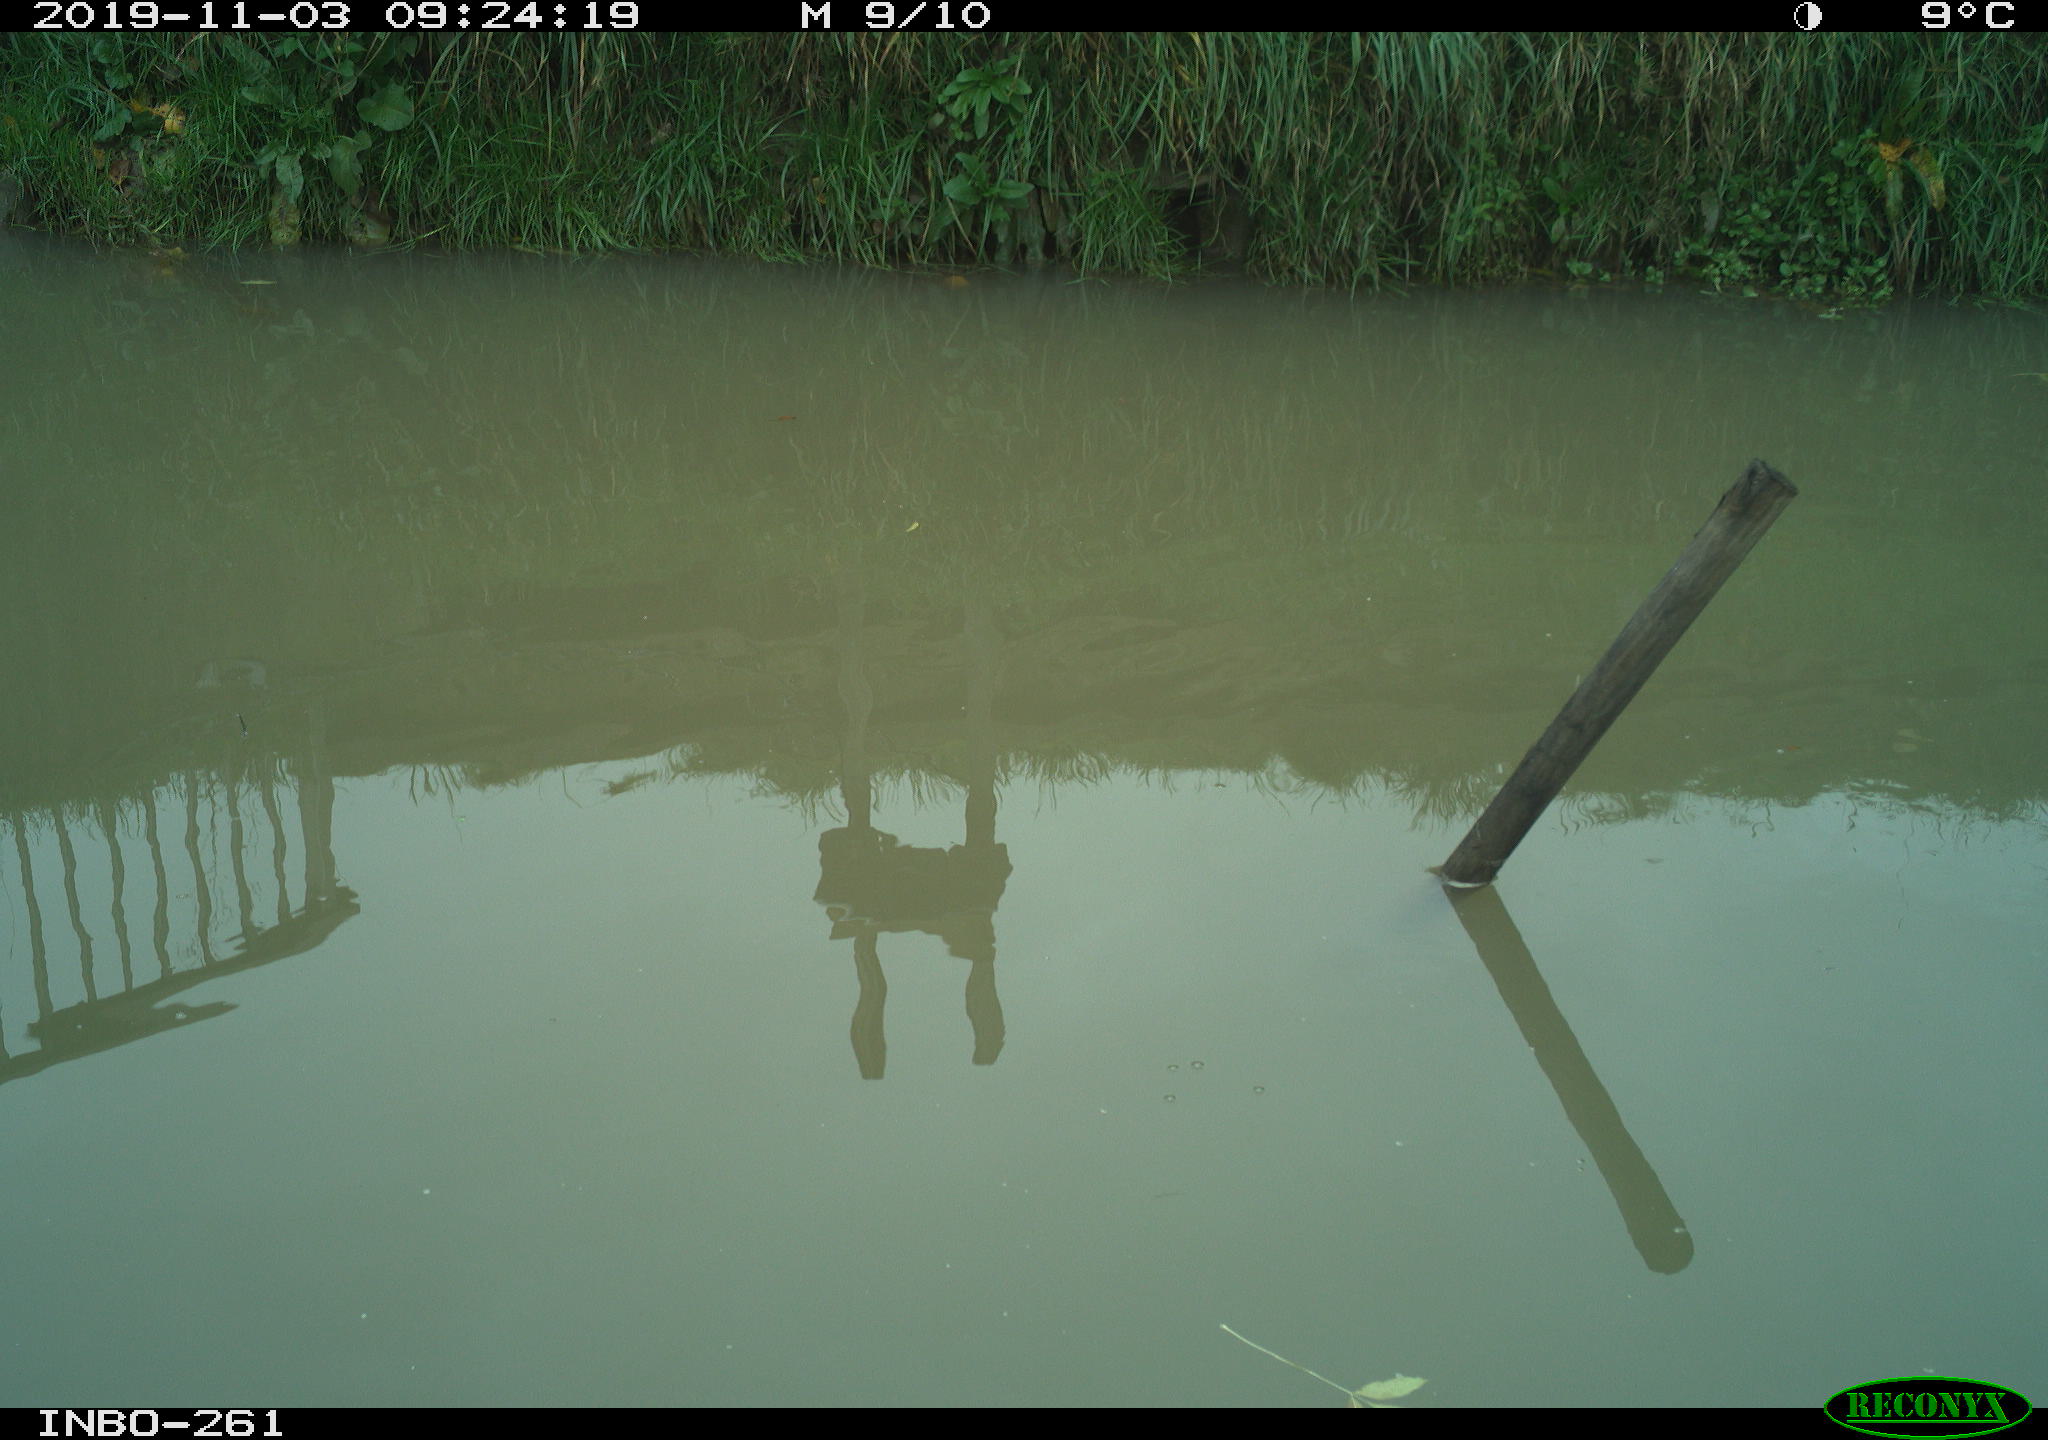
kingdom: Animalia
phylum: Chordata
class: Aves
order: Gruiformes
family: Rallidae
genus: Gallinula
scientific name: Gallinula chloropus
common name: Common moorhen
